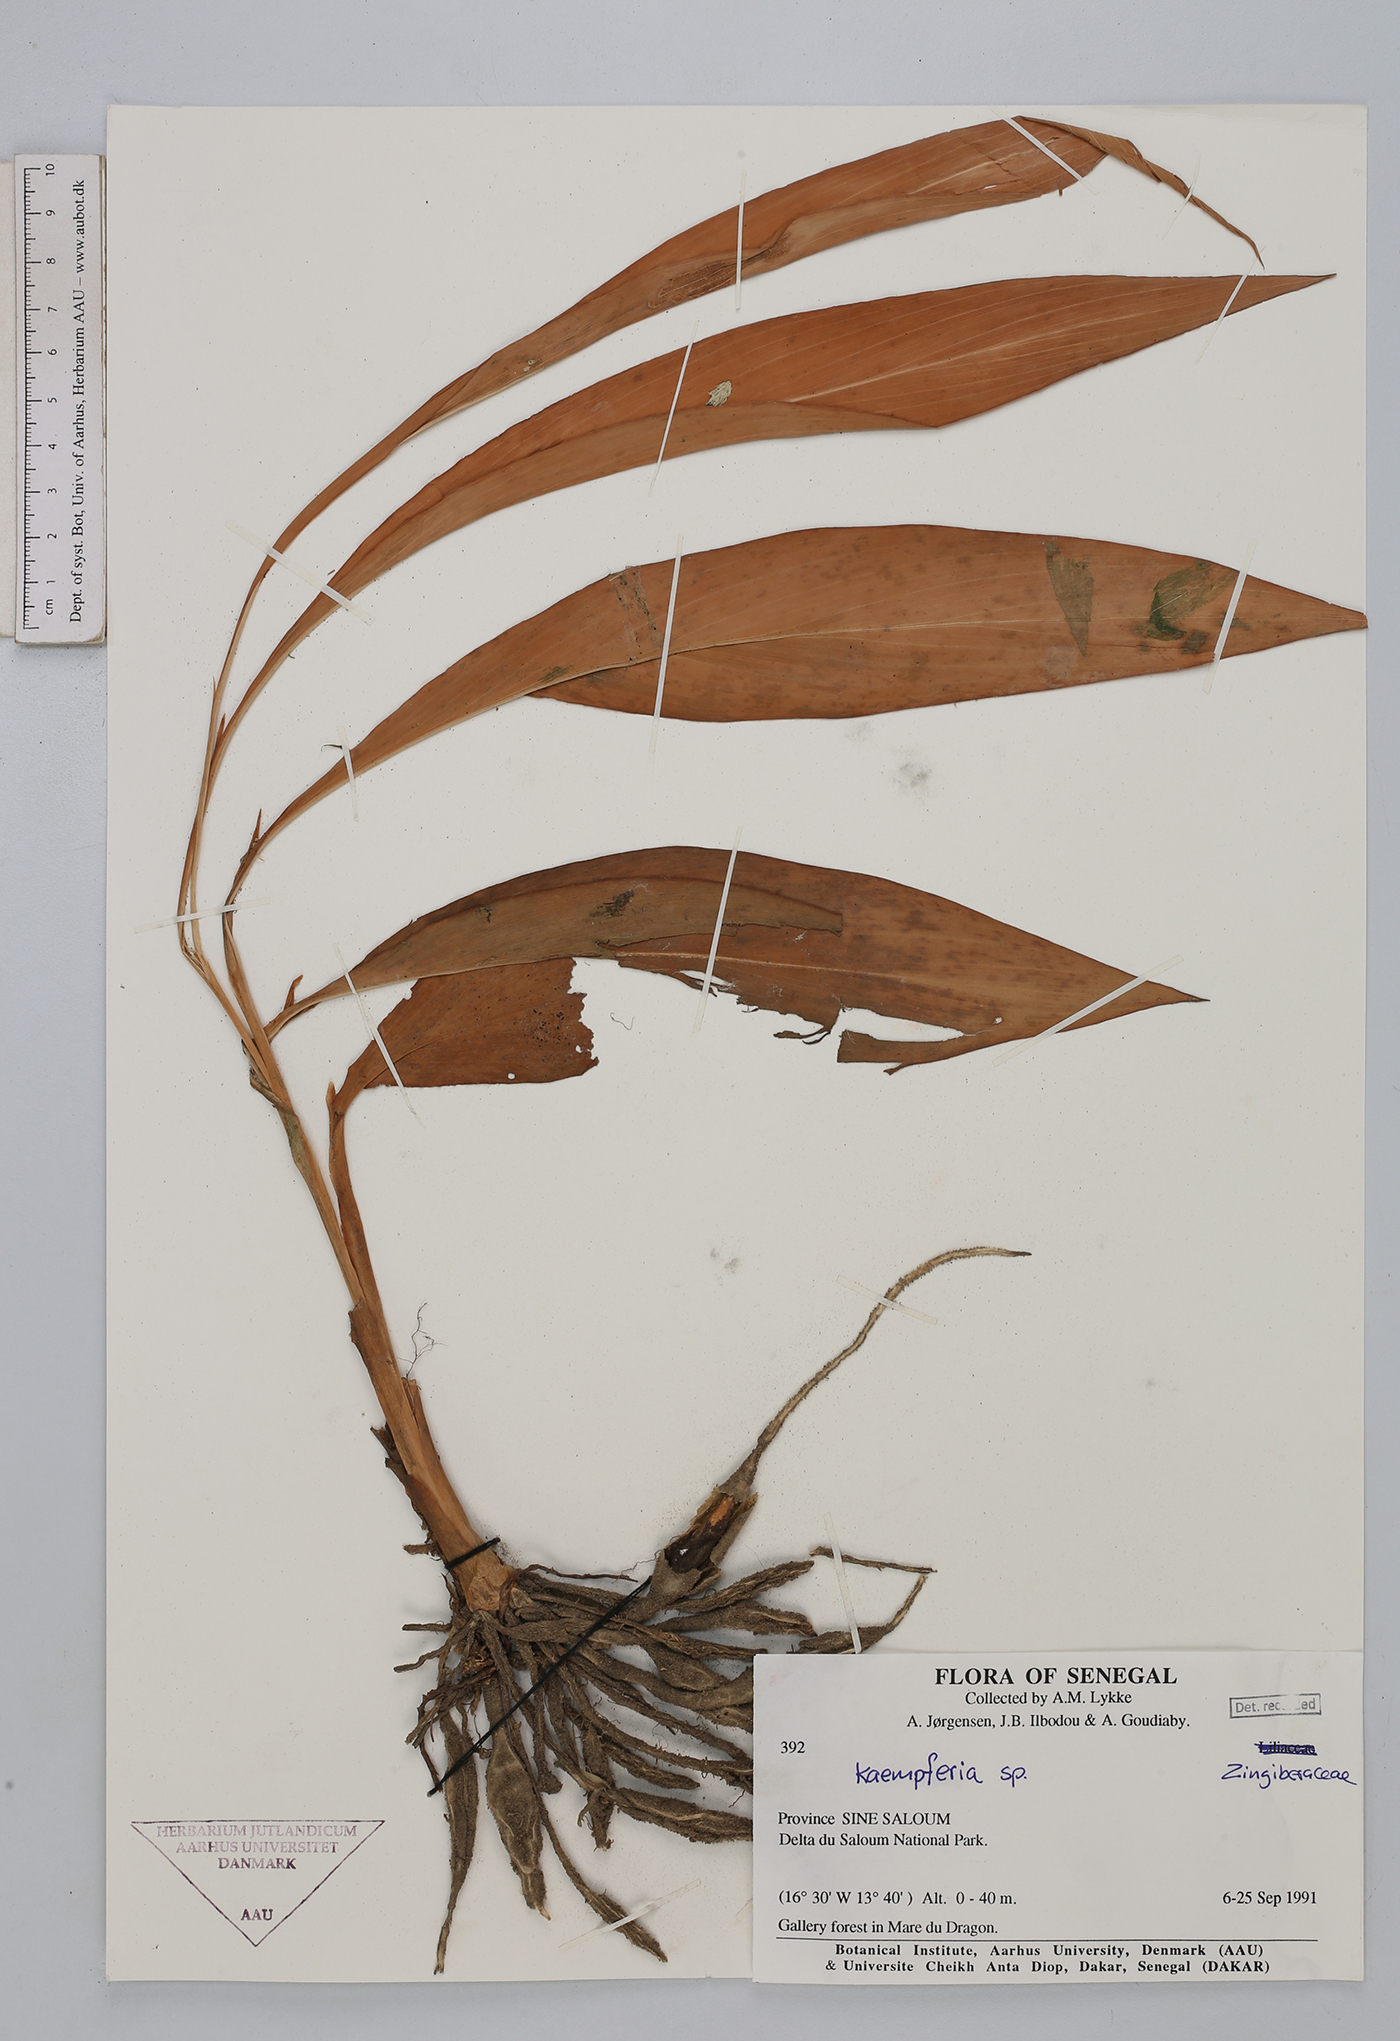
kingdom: Plantae
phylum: Tracheophyta
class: Liliopsida
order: Zingiberales
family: Zingiberaceae
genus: Kaempferia
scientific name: Kaempferia
